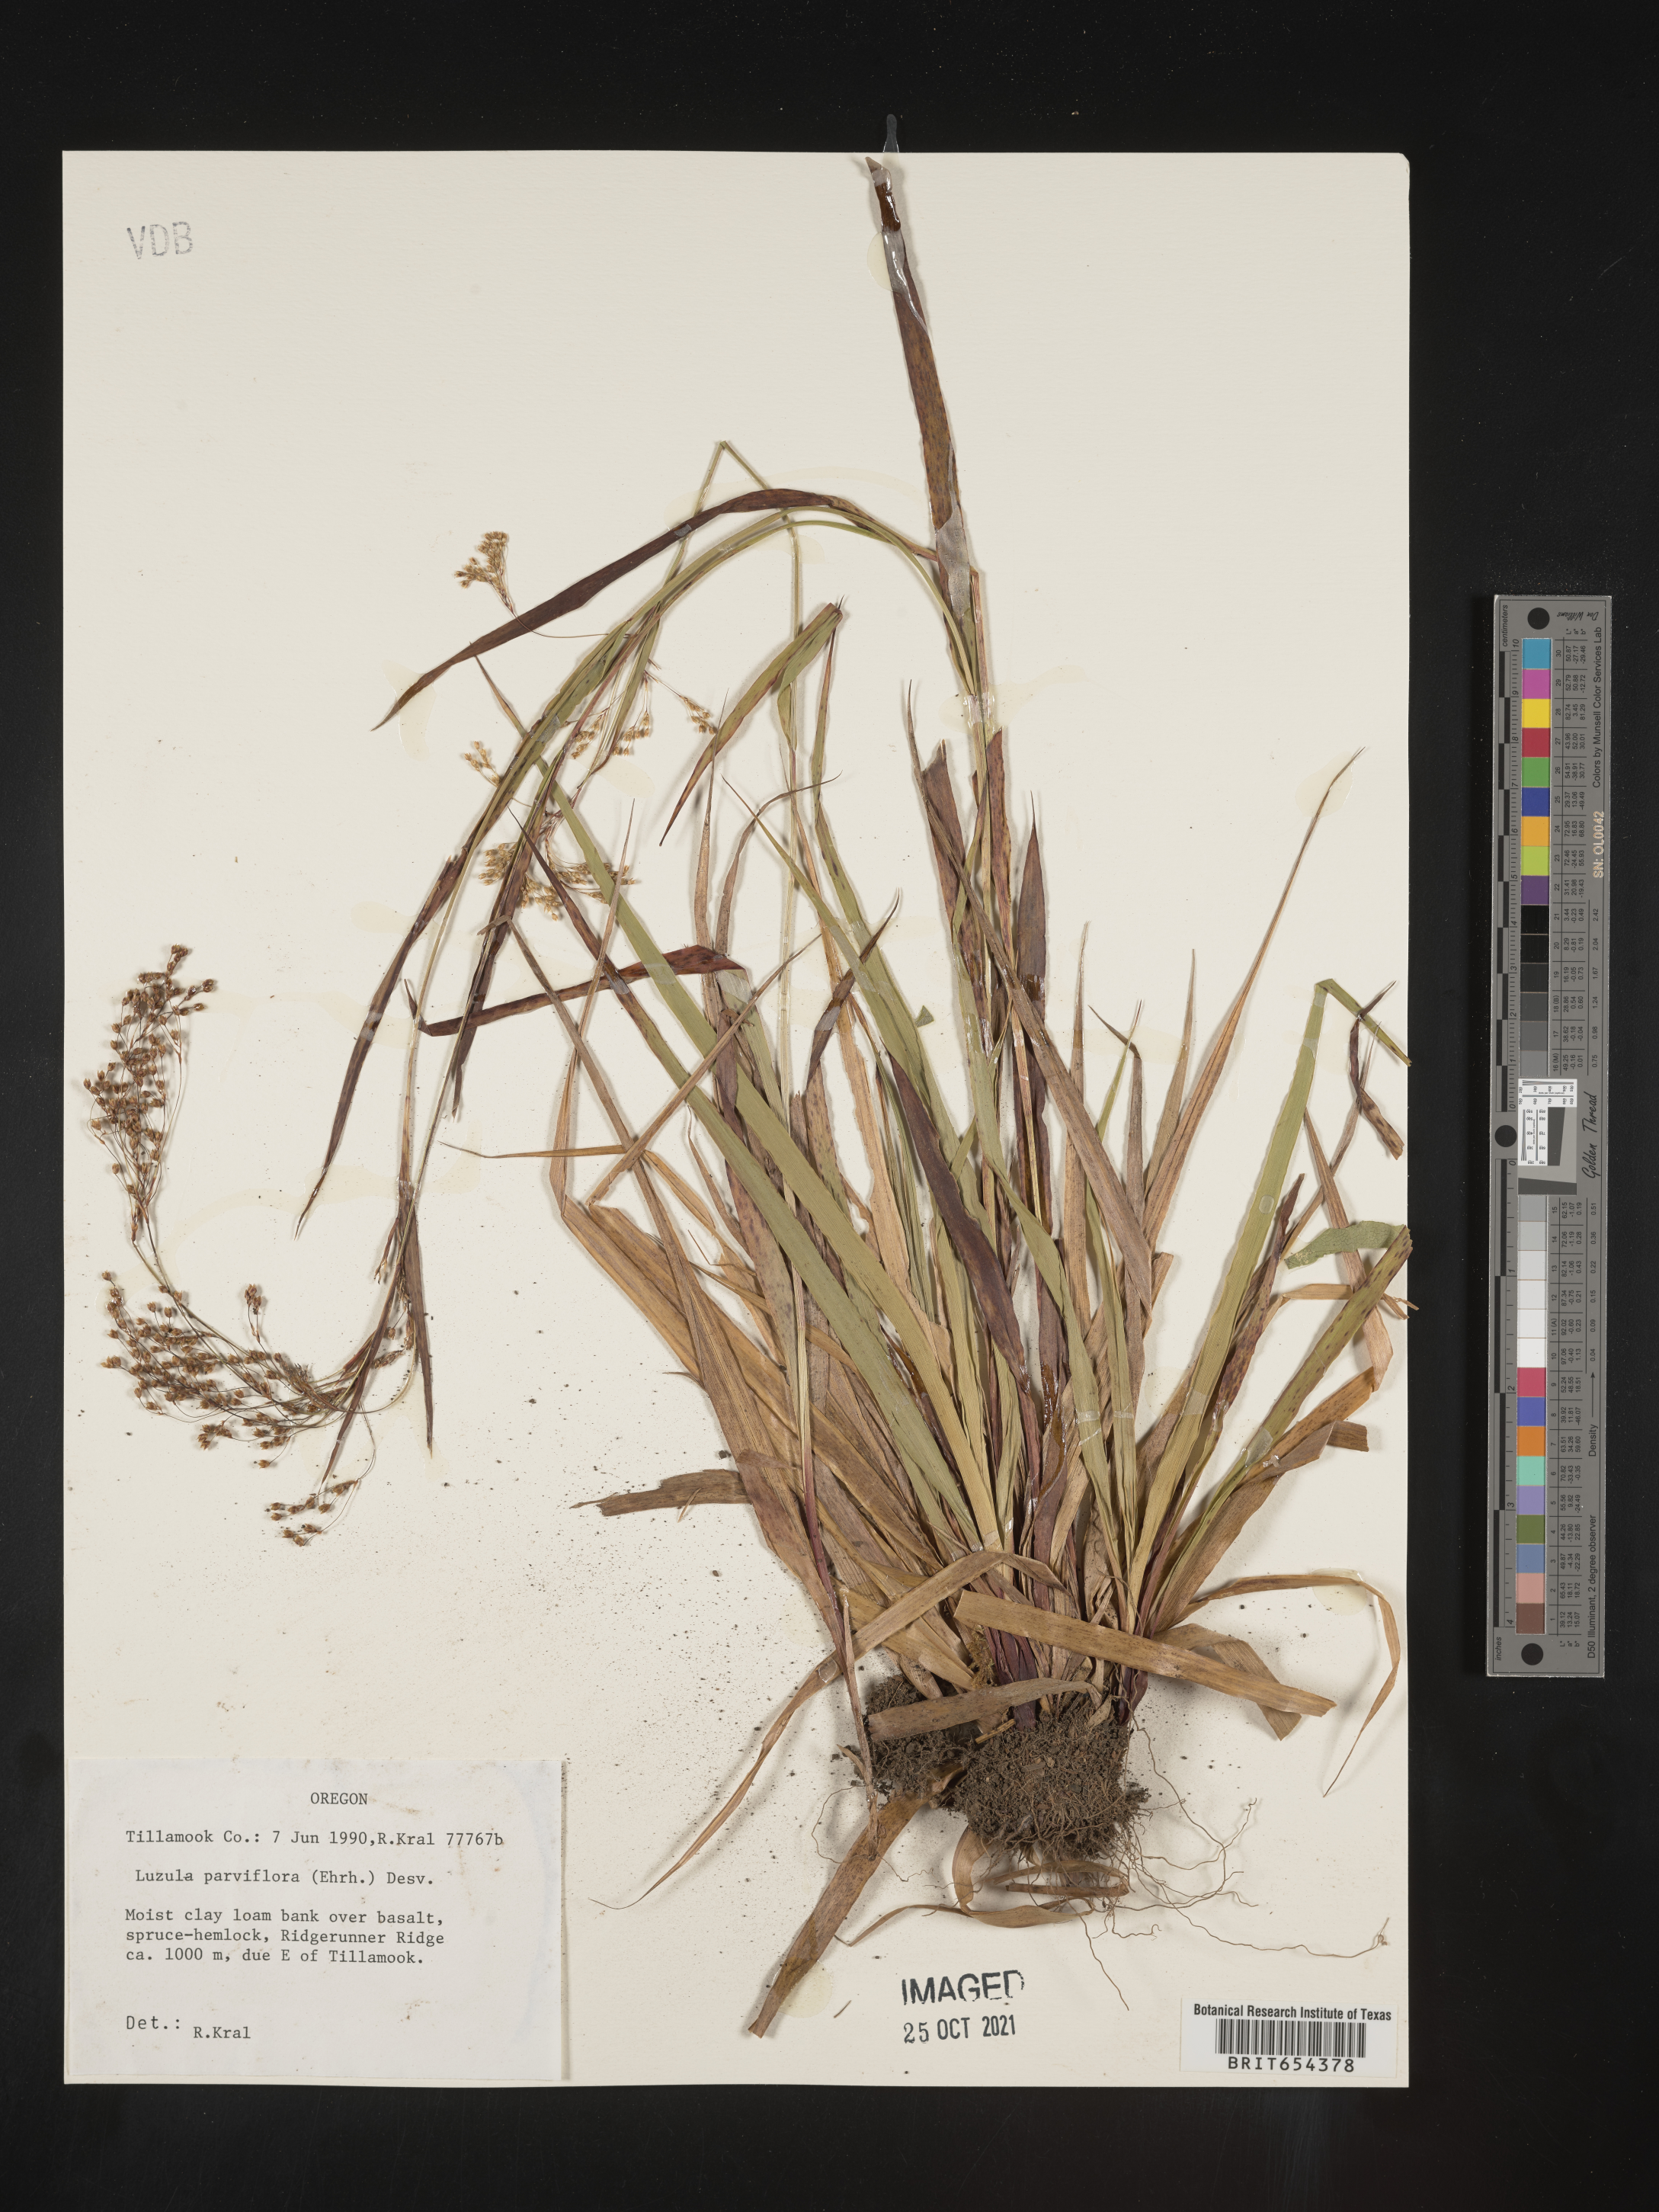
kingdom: Plantae
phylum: Tracheophyta
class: Liliopsida
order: Poales
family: Juncaceae
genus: Luzula
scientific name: Luzula parviflora
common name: Millet woodrush
